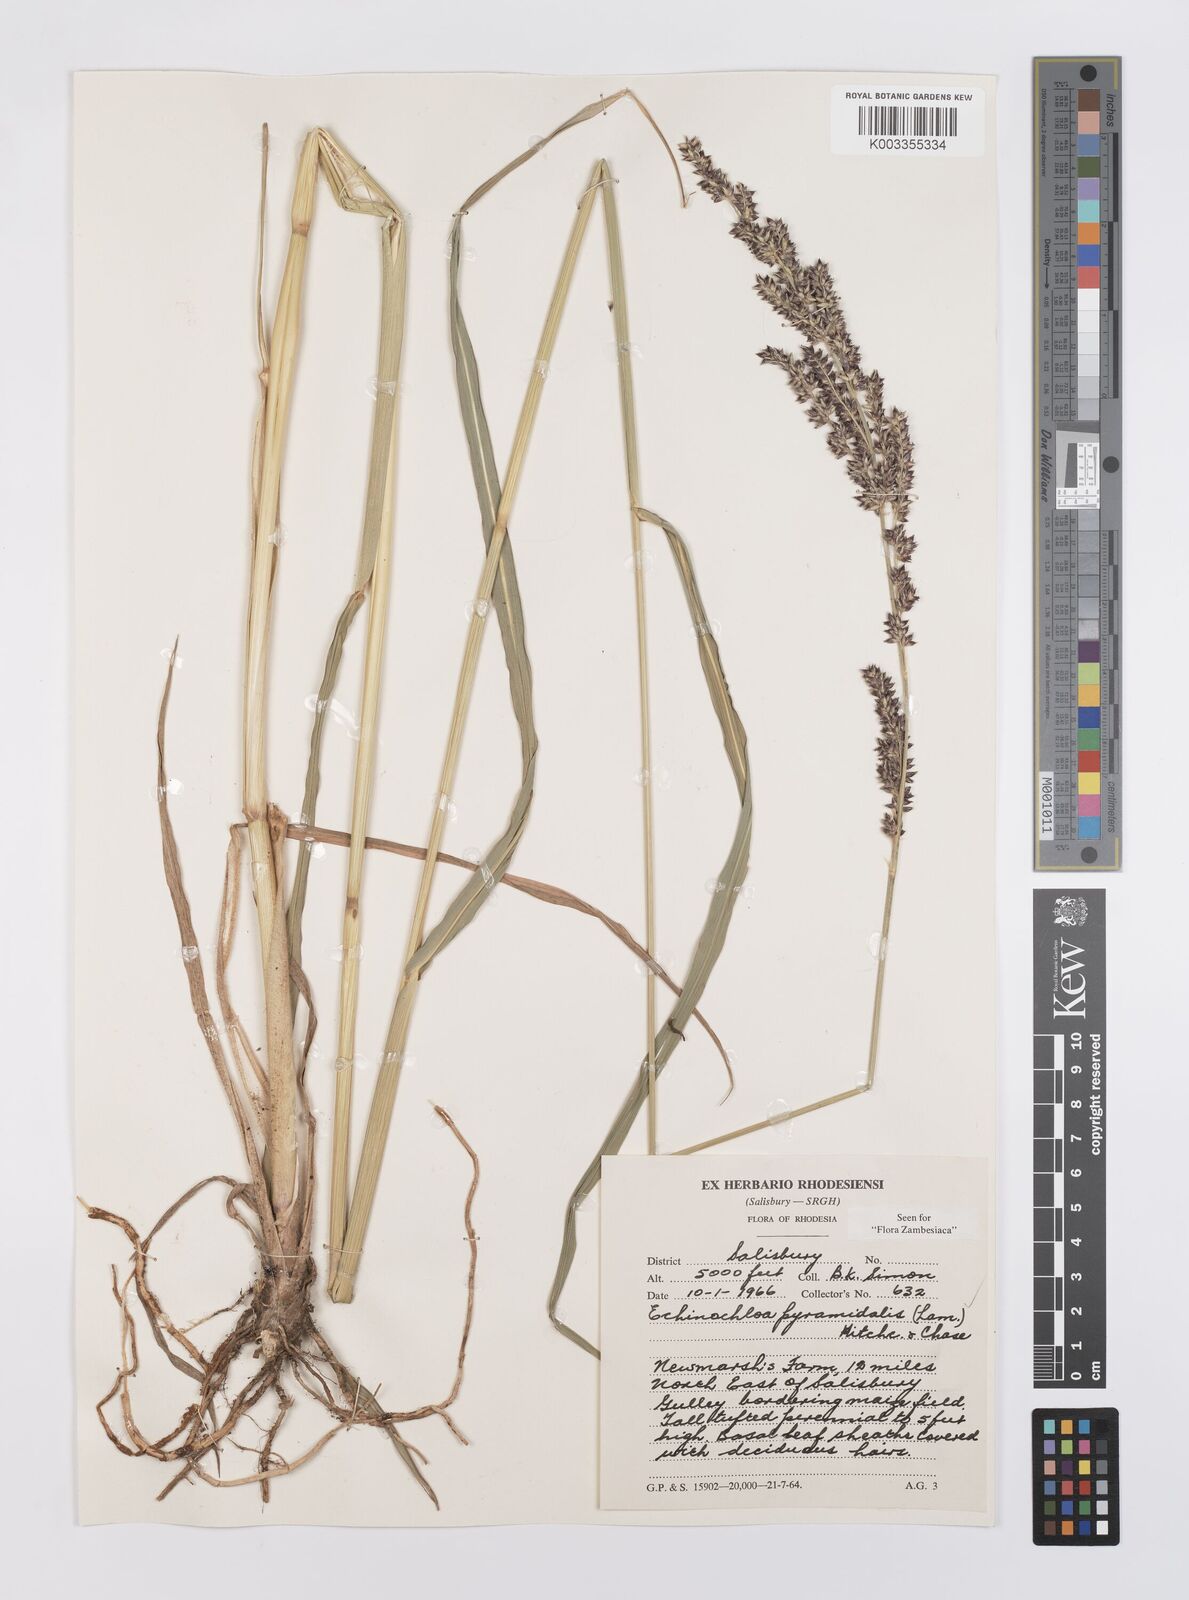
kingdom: Plantae
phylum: Tracheophyta
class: Liliopsida
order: Poales
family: Poaceae
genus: Echinochloa
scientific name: Echinochloa pyramidalis
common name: Antelope grass
